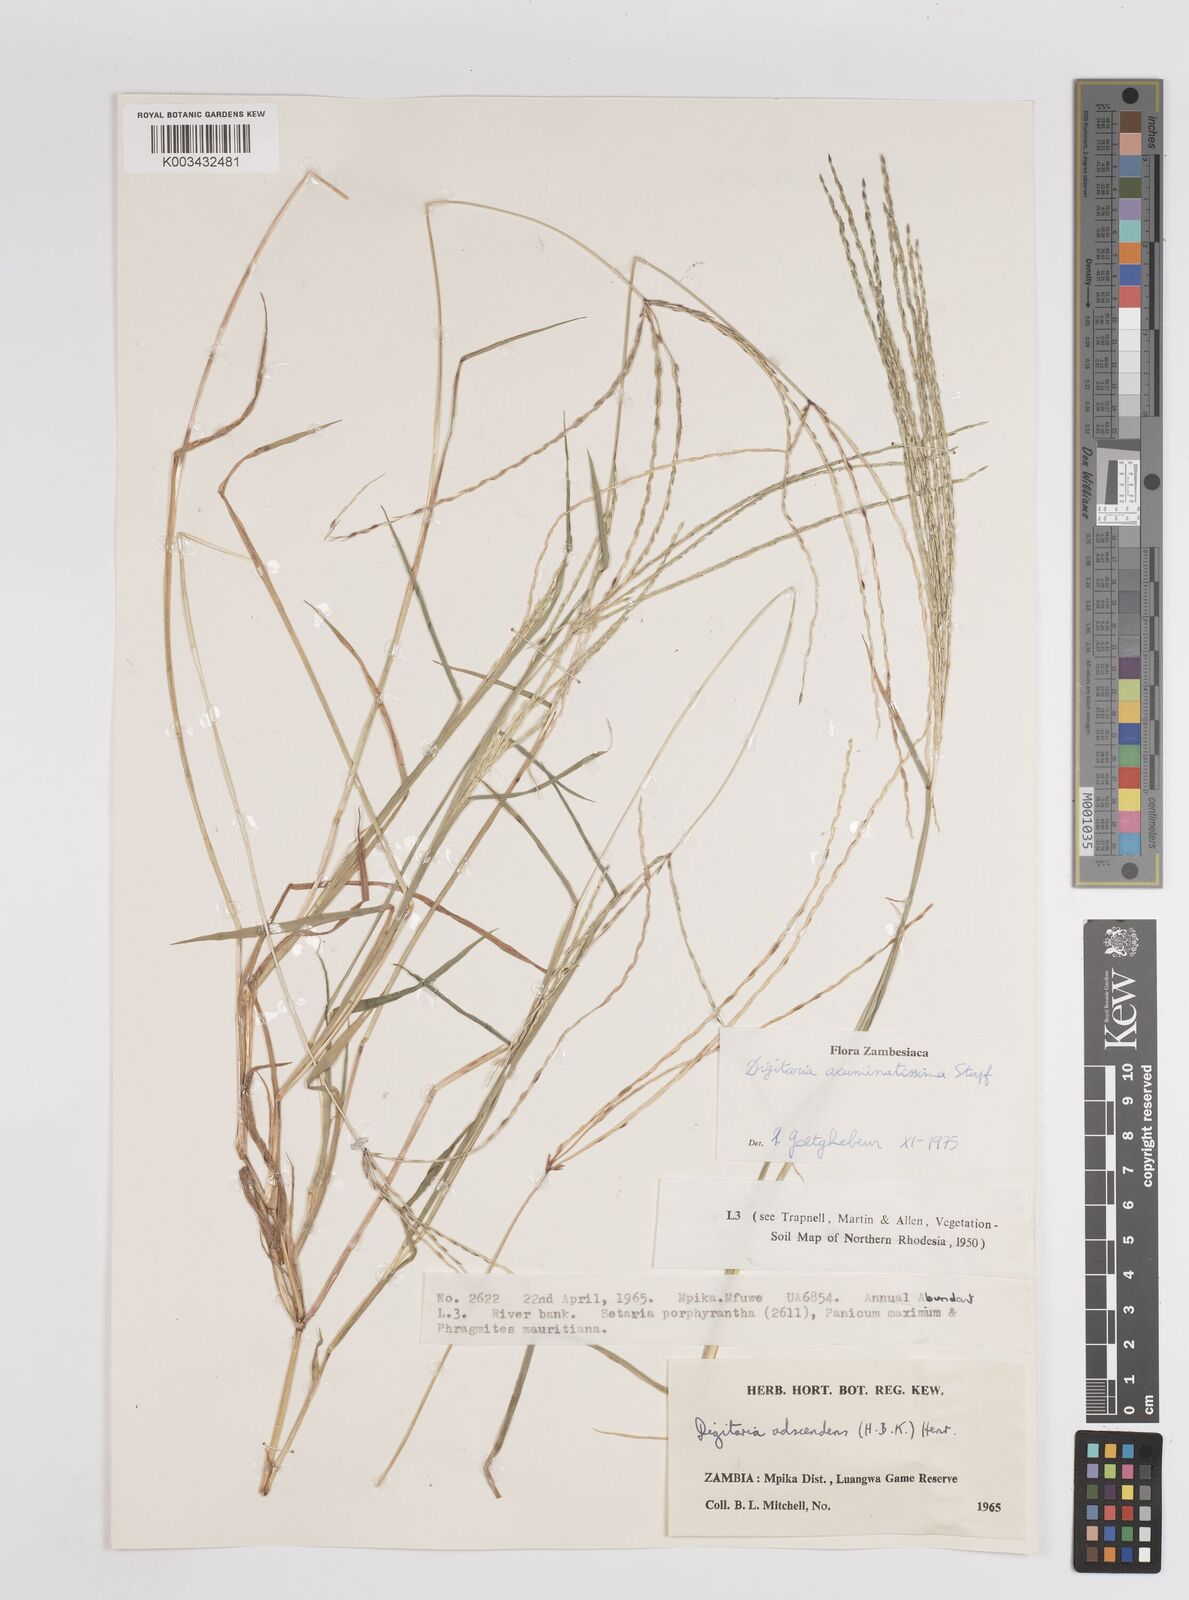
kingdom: Plantae
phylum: Tracheophyta
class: Liliopsida
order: Poales
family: Poaceae
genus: Digitaria
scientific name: Digitaria acuminatissima
